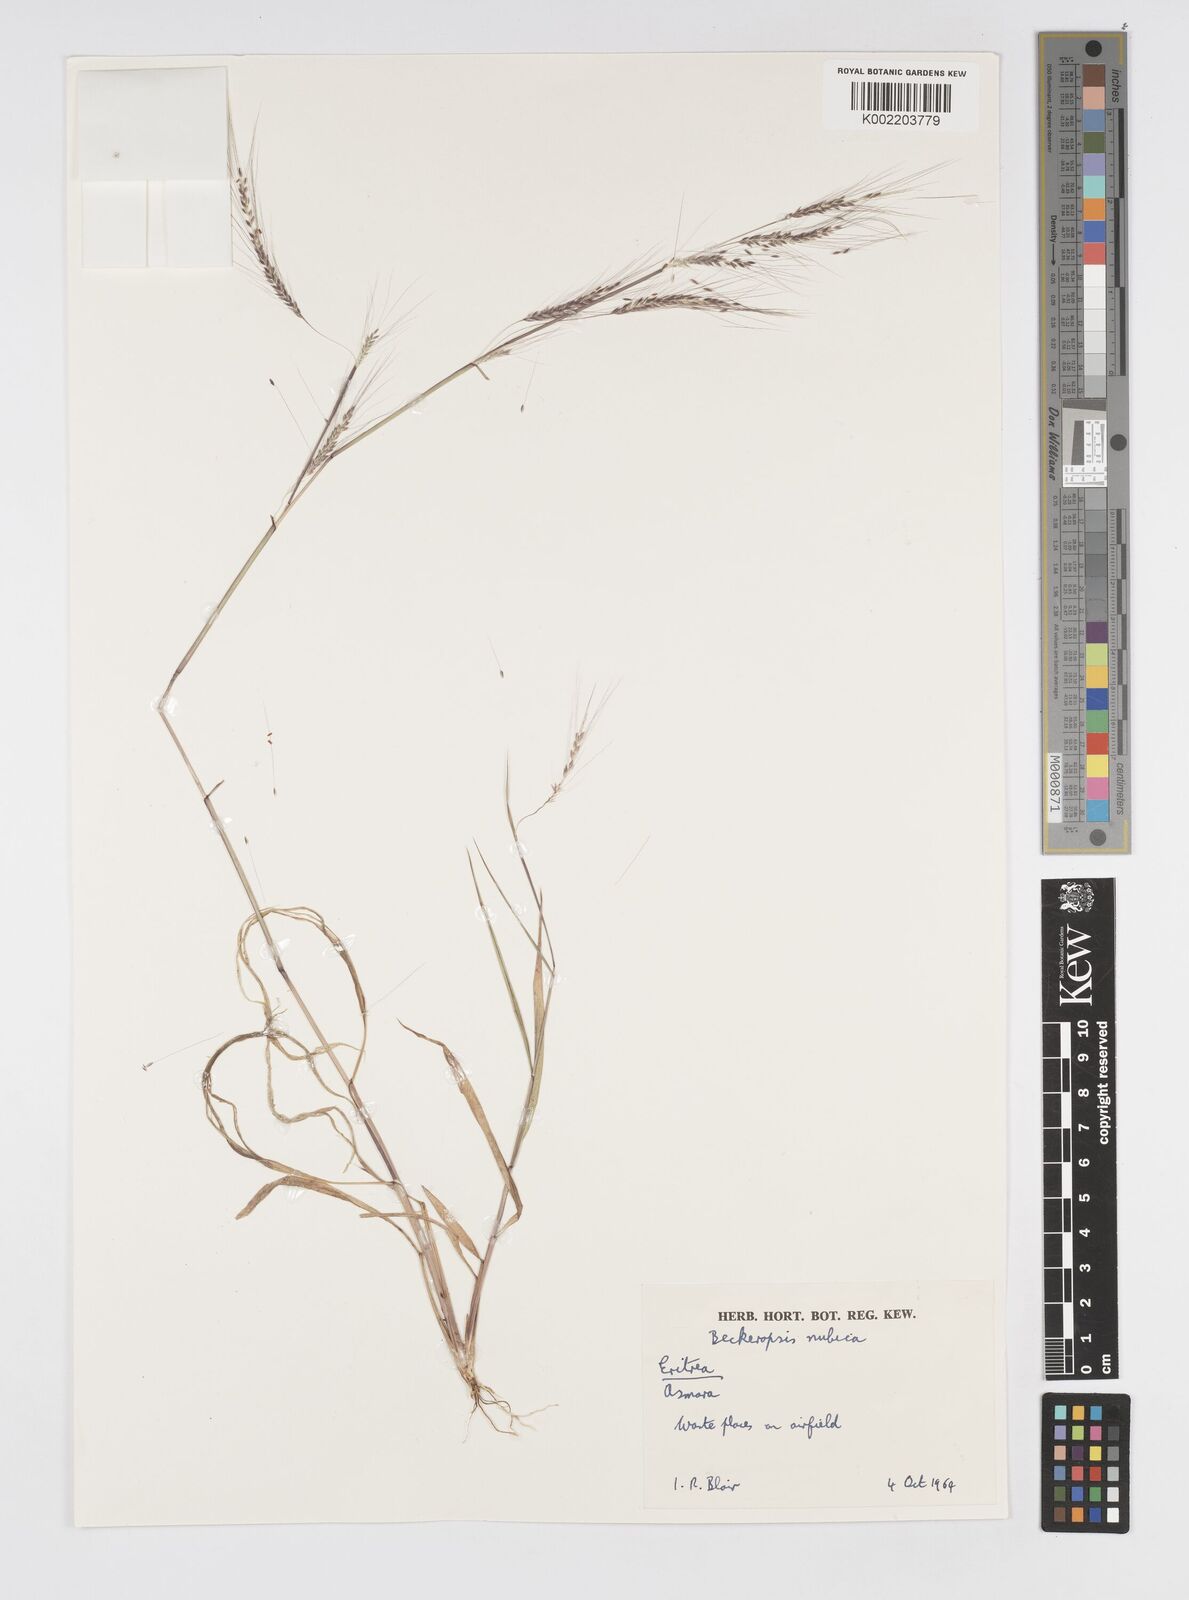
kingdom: Plantae
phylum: Tracheophyta
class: Liliopsida
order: Poales
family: Poaceae
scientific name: Poaceae
